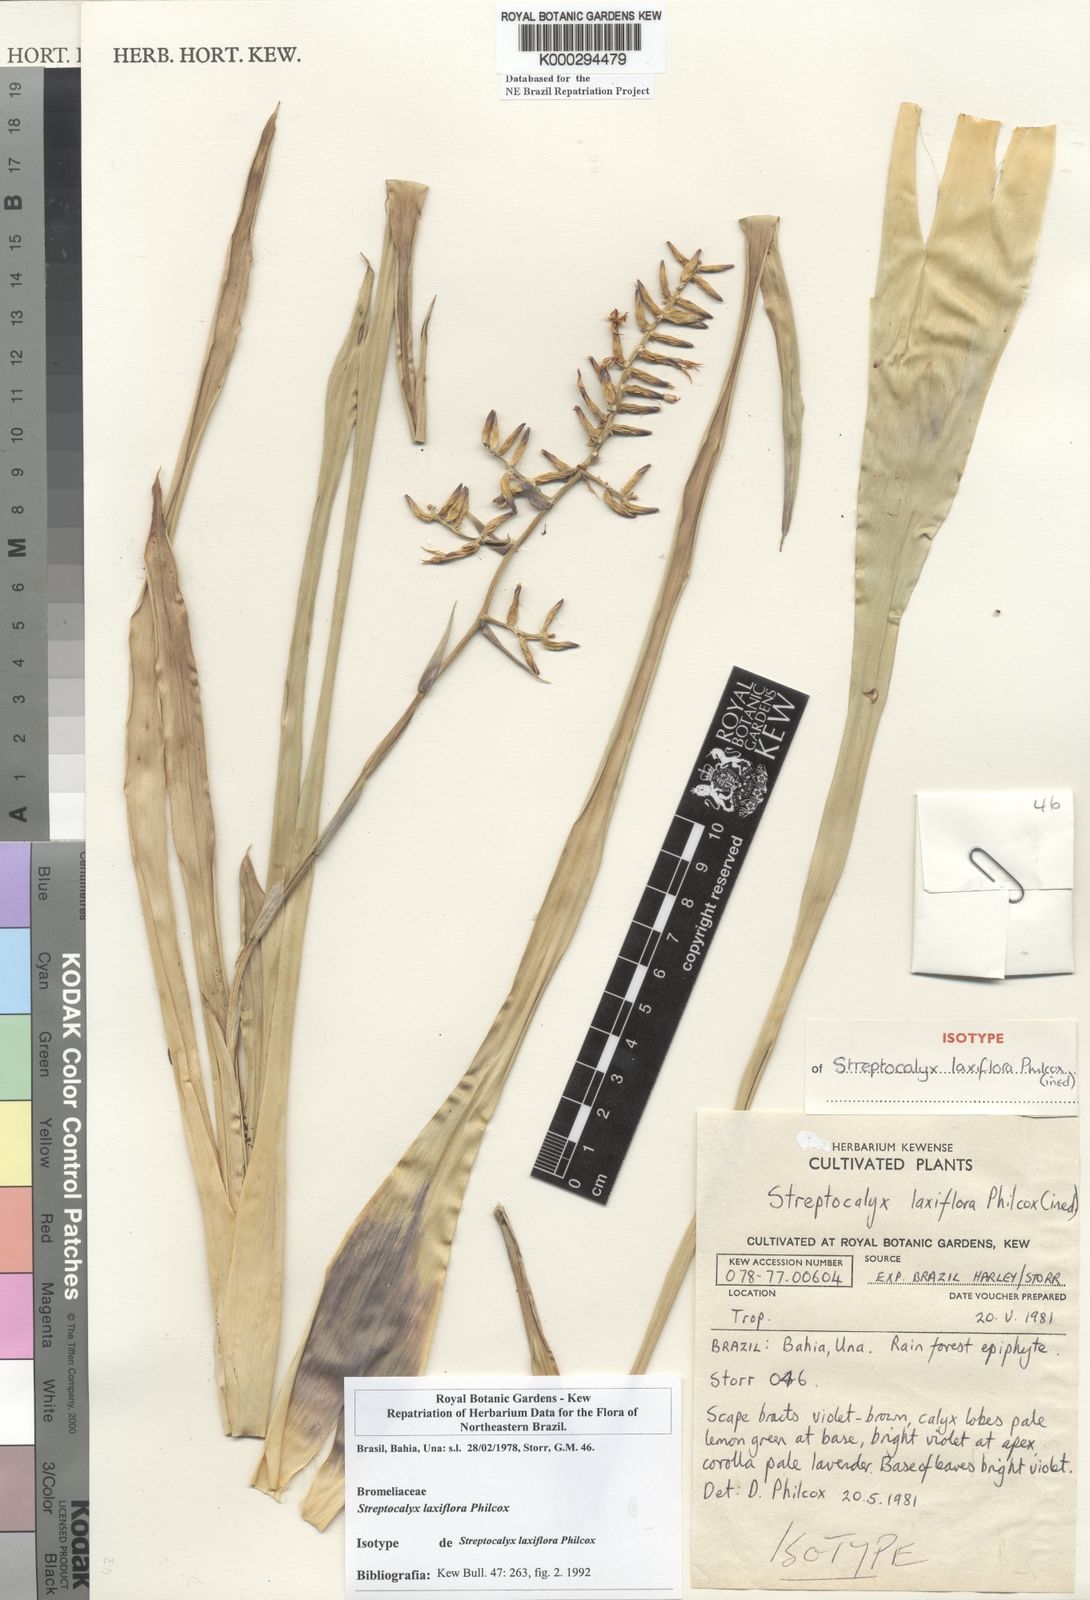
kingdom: Plantae
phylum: Tracheophyta
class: Liliopsida
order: Poales
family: Bromeliaceae
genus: Wittmackia
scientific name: Wittmackia brasiliensis
